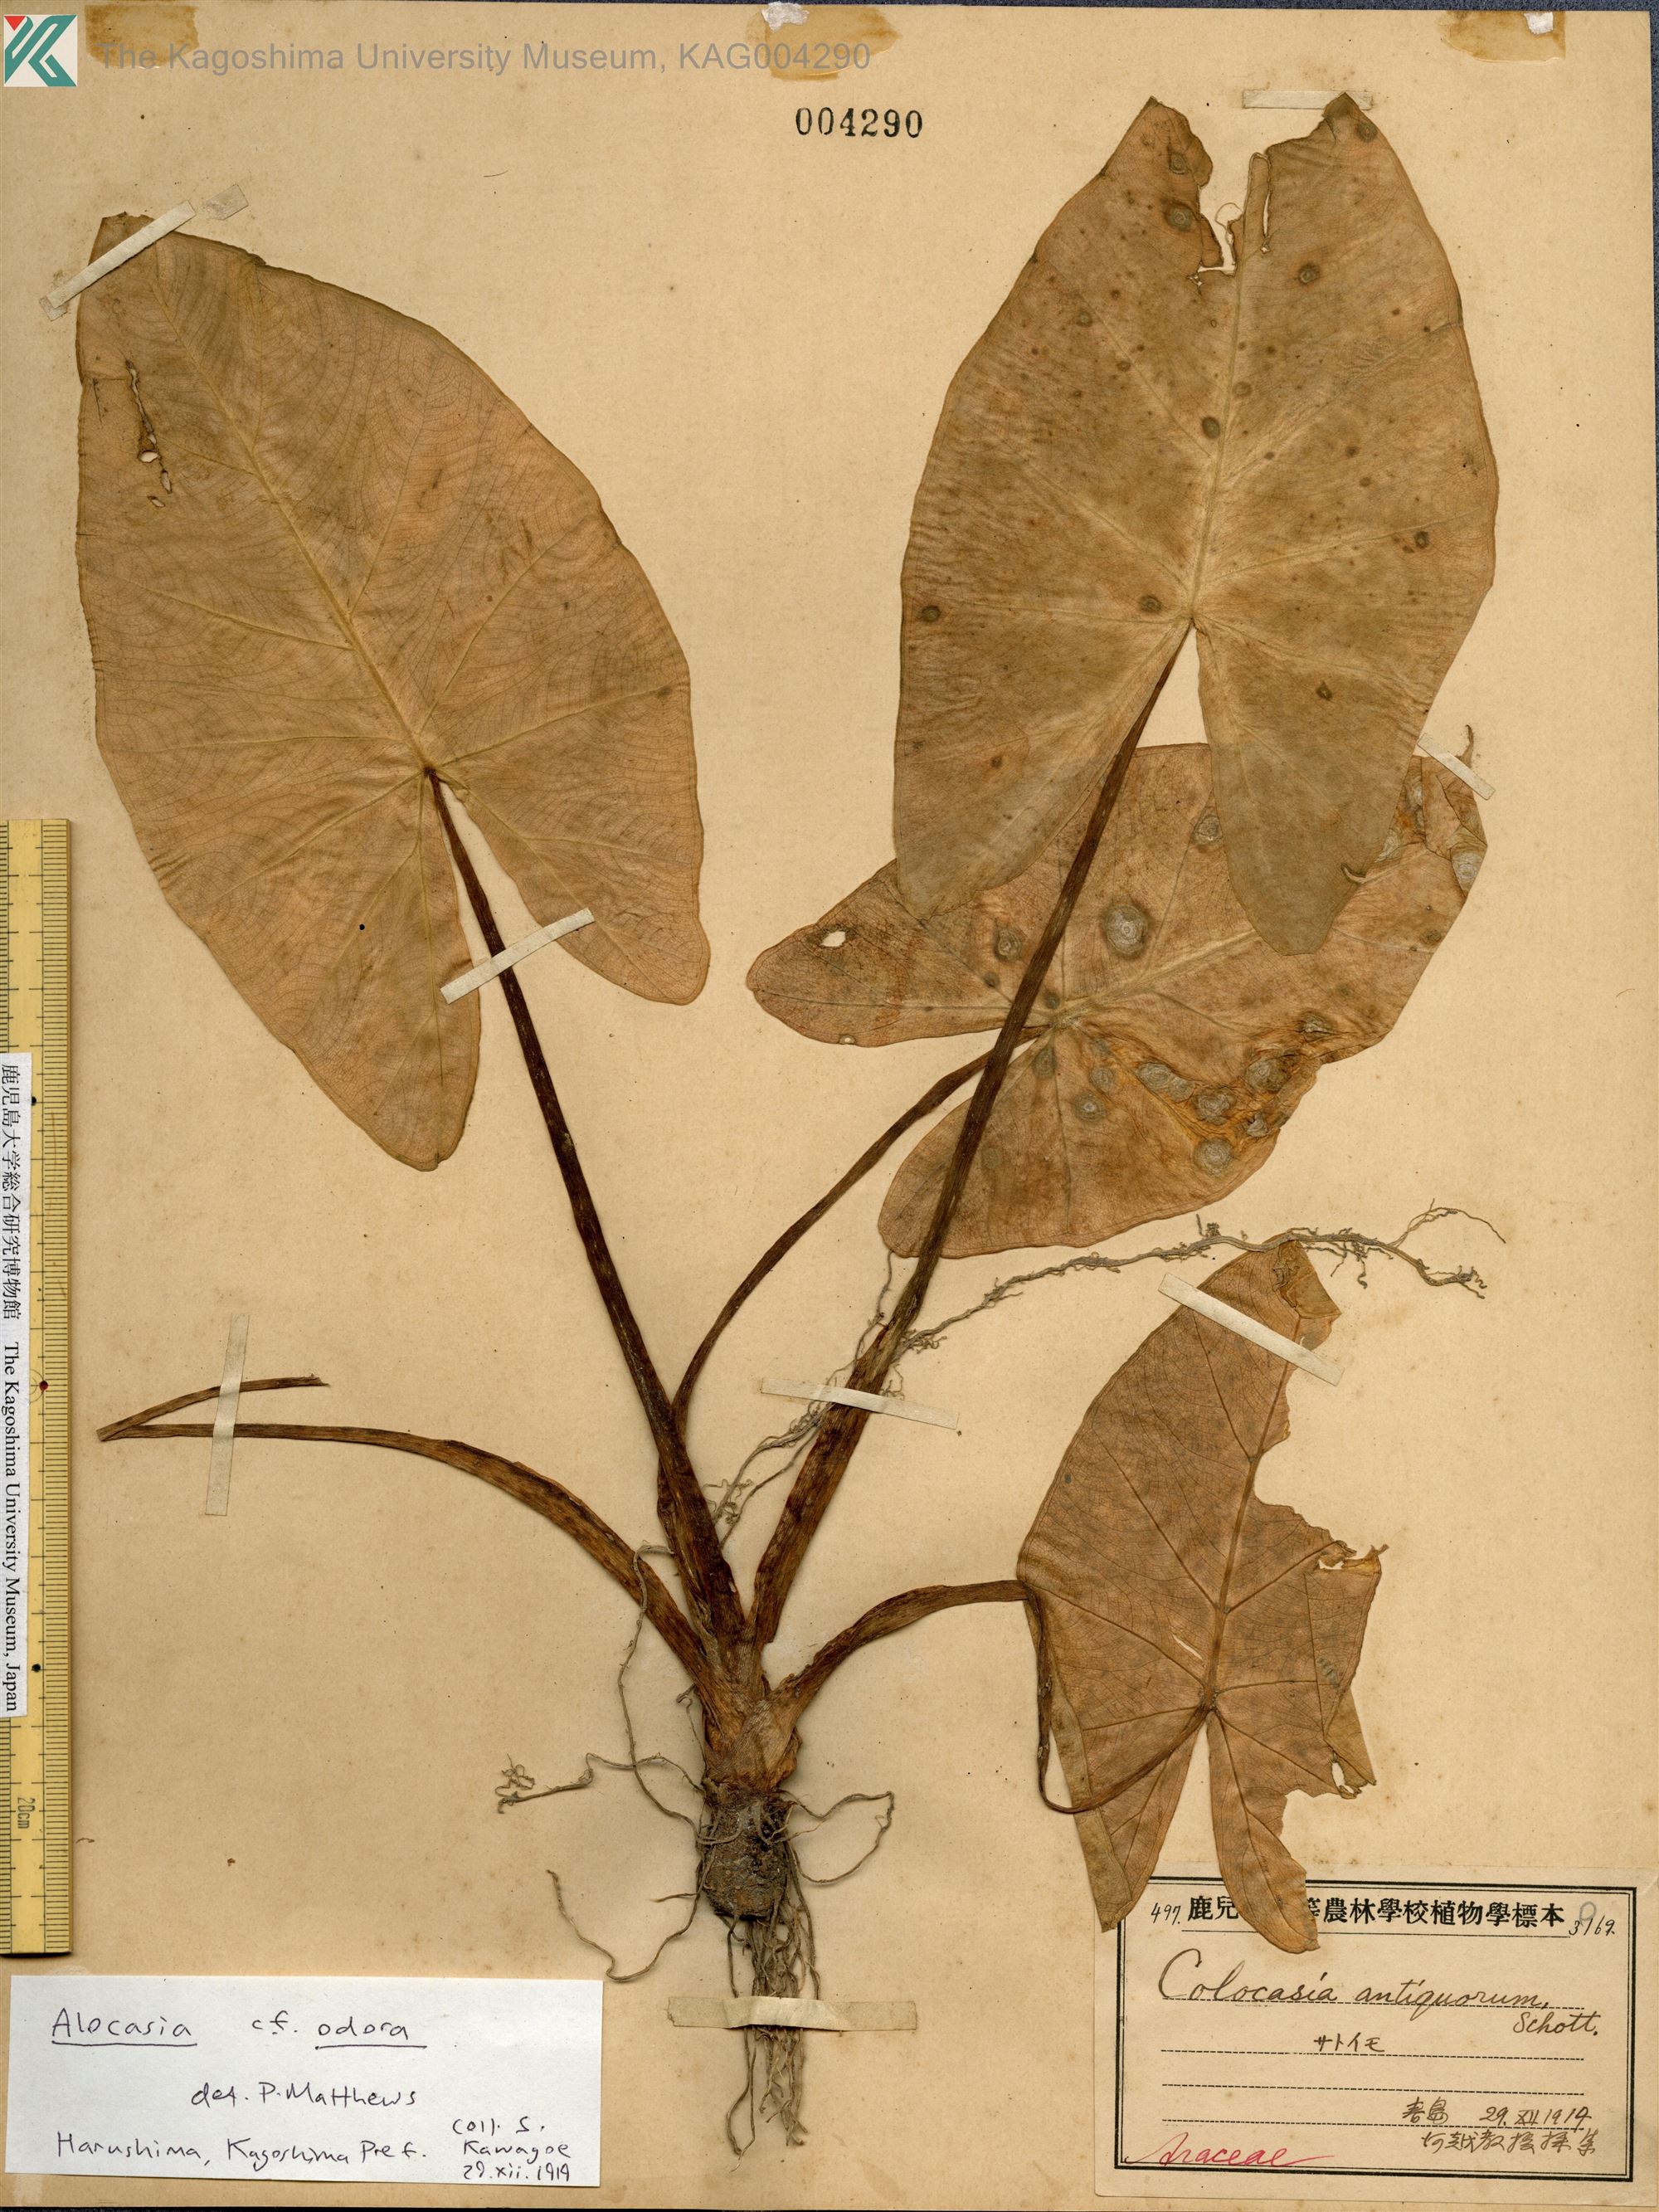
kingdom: Plantae
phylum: Tracheophyta
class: Liliopsida
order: Alismatales
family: Araceae
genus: Colocasia
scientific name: Colocasia esculenta
